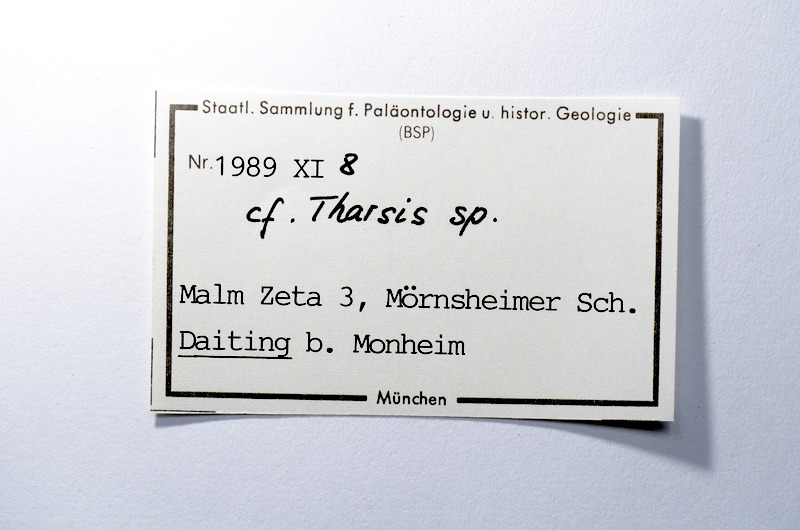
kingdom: Animalia
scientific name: Animalia
